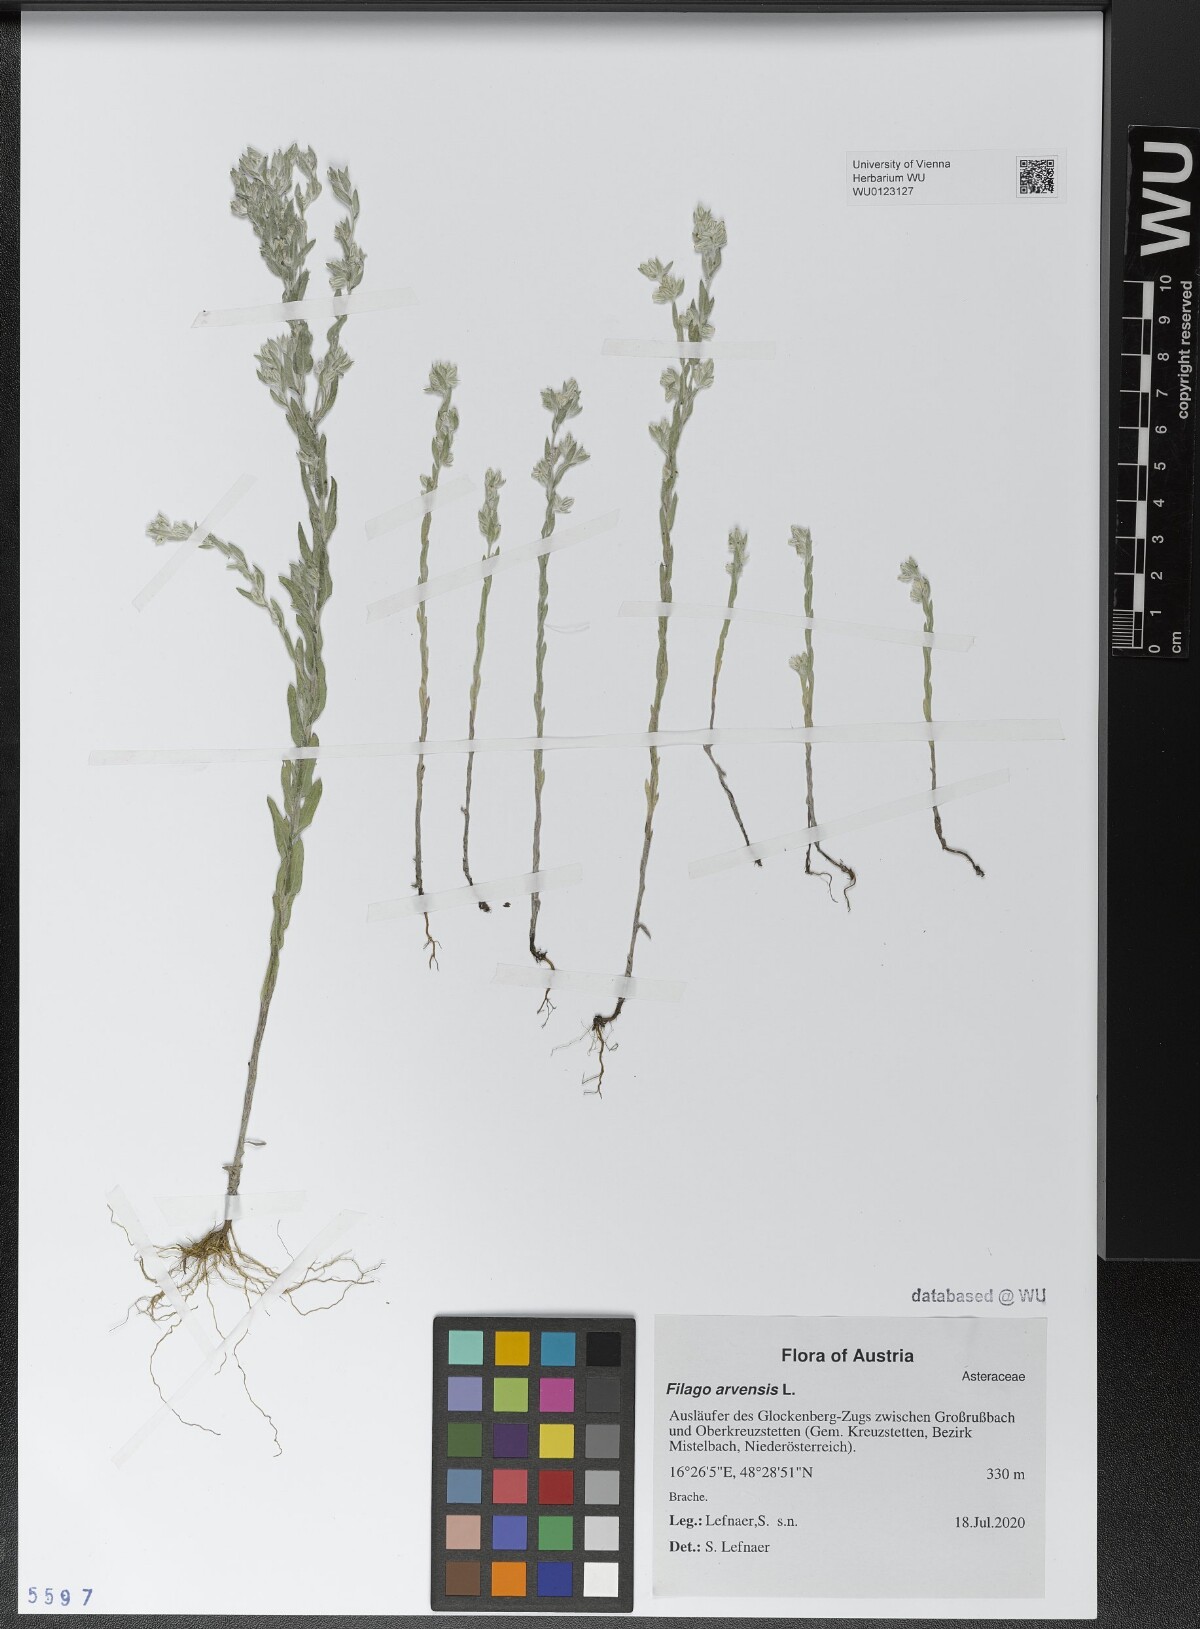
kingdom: Plantae
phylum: Tracheophyta
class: Magnoliopsida
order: Asterales
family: Asteraceae
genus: Filago
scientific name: Filago arvensis
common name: Field cudweed
